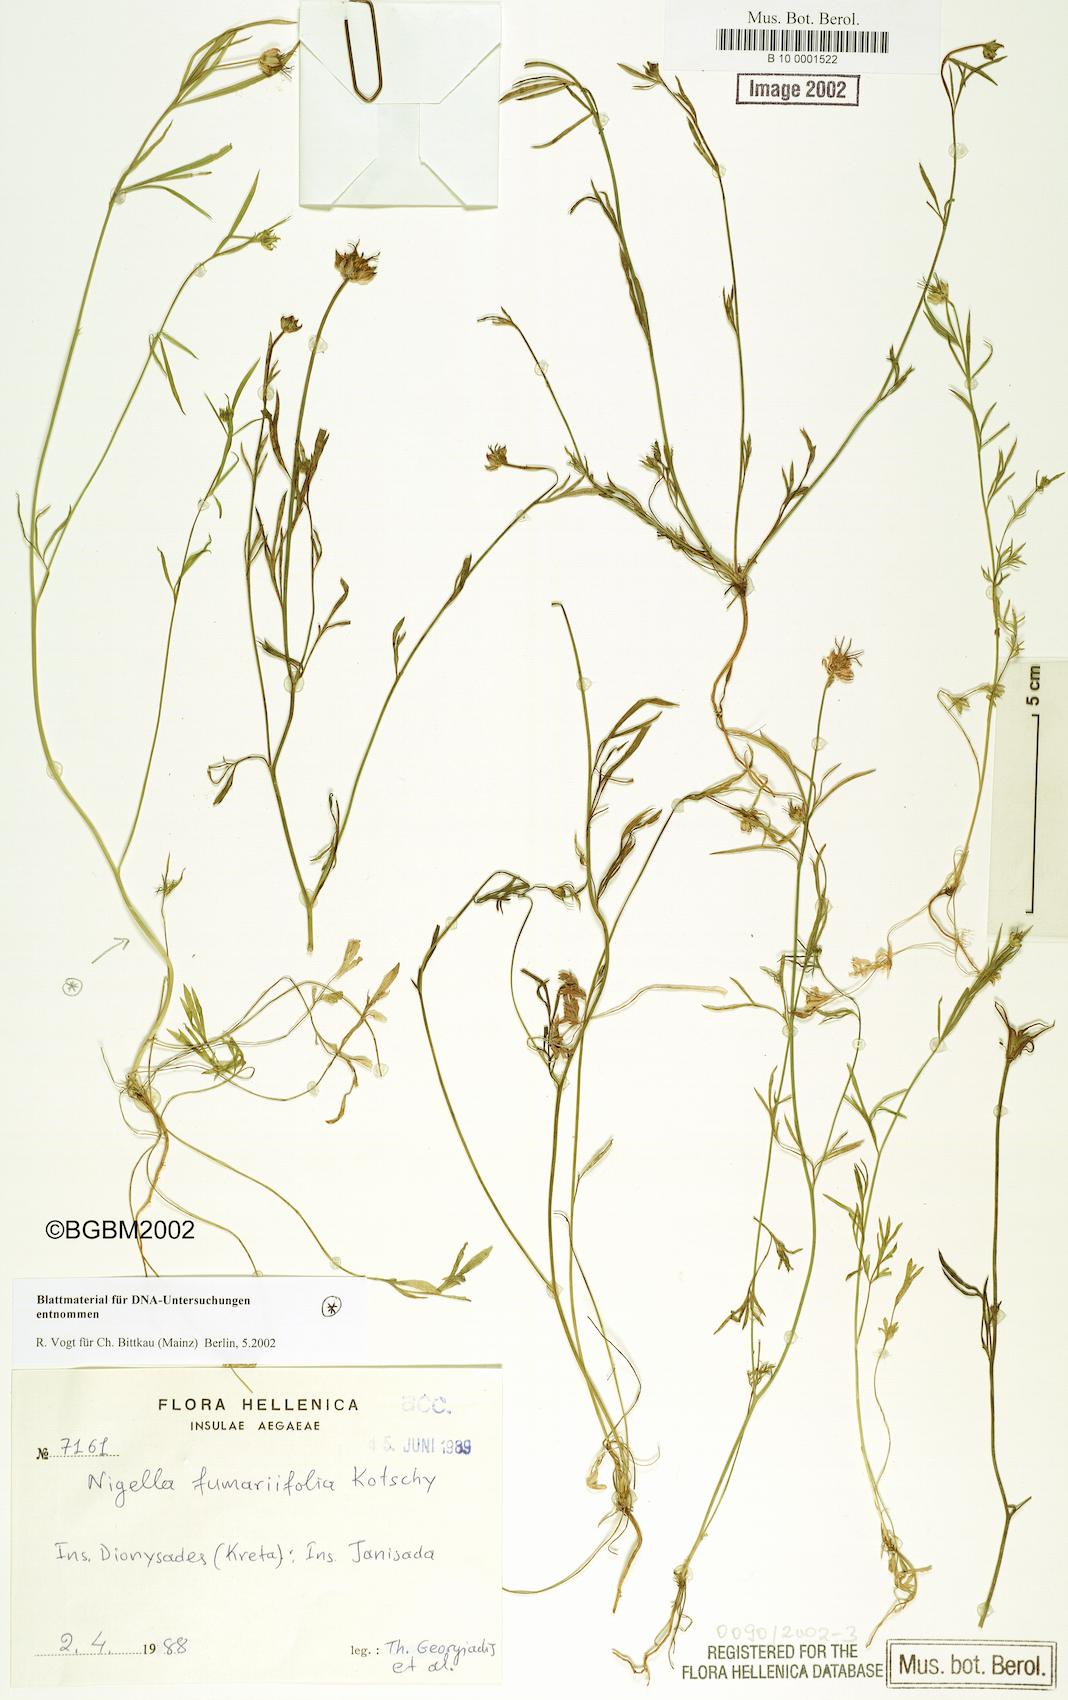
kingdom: Plantae
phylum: Tracheophyta
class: Magnoliopsida
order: Ranunculales
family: Ranunculaceae
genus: Nigella
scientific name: Nigella arvensis
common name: Wild fennel-flower
